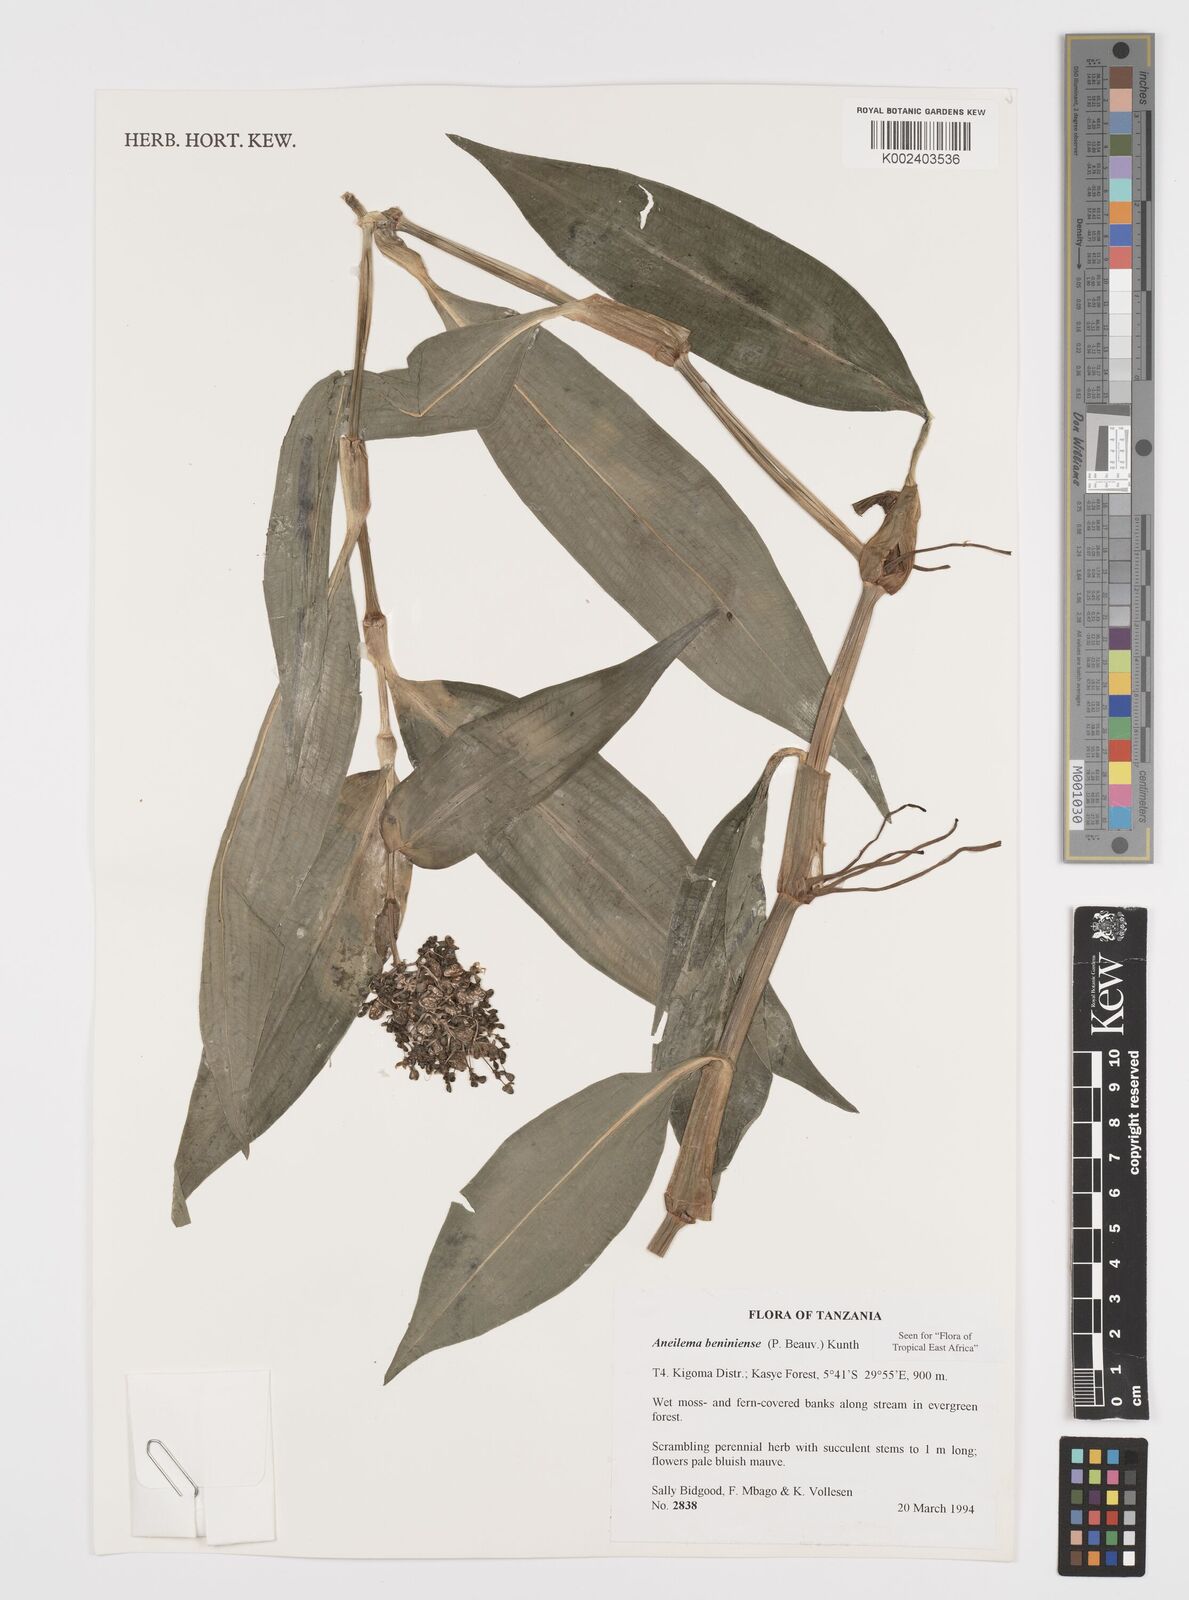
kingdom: Plantae
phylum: Tracheophyta
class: Liliopsida
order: Commelinales
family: Commelinaceae
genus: Aneilema
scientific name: Aneilema beniniense
